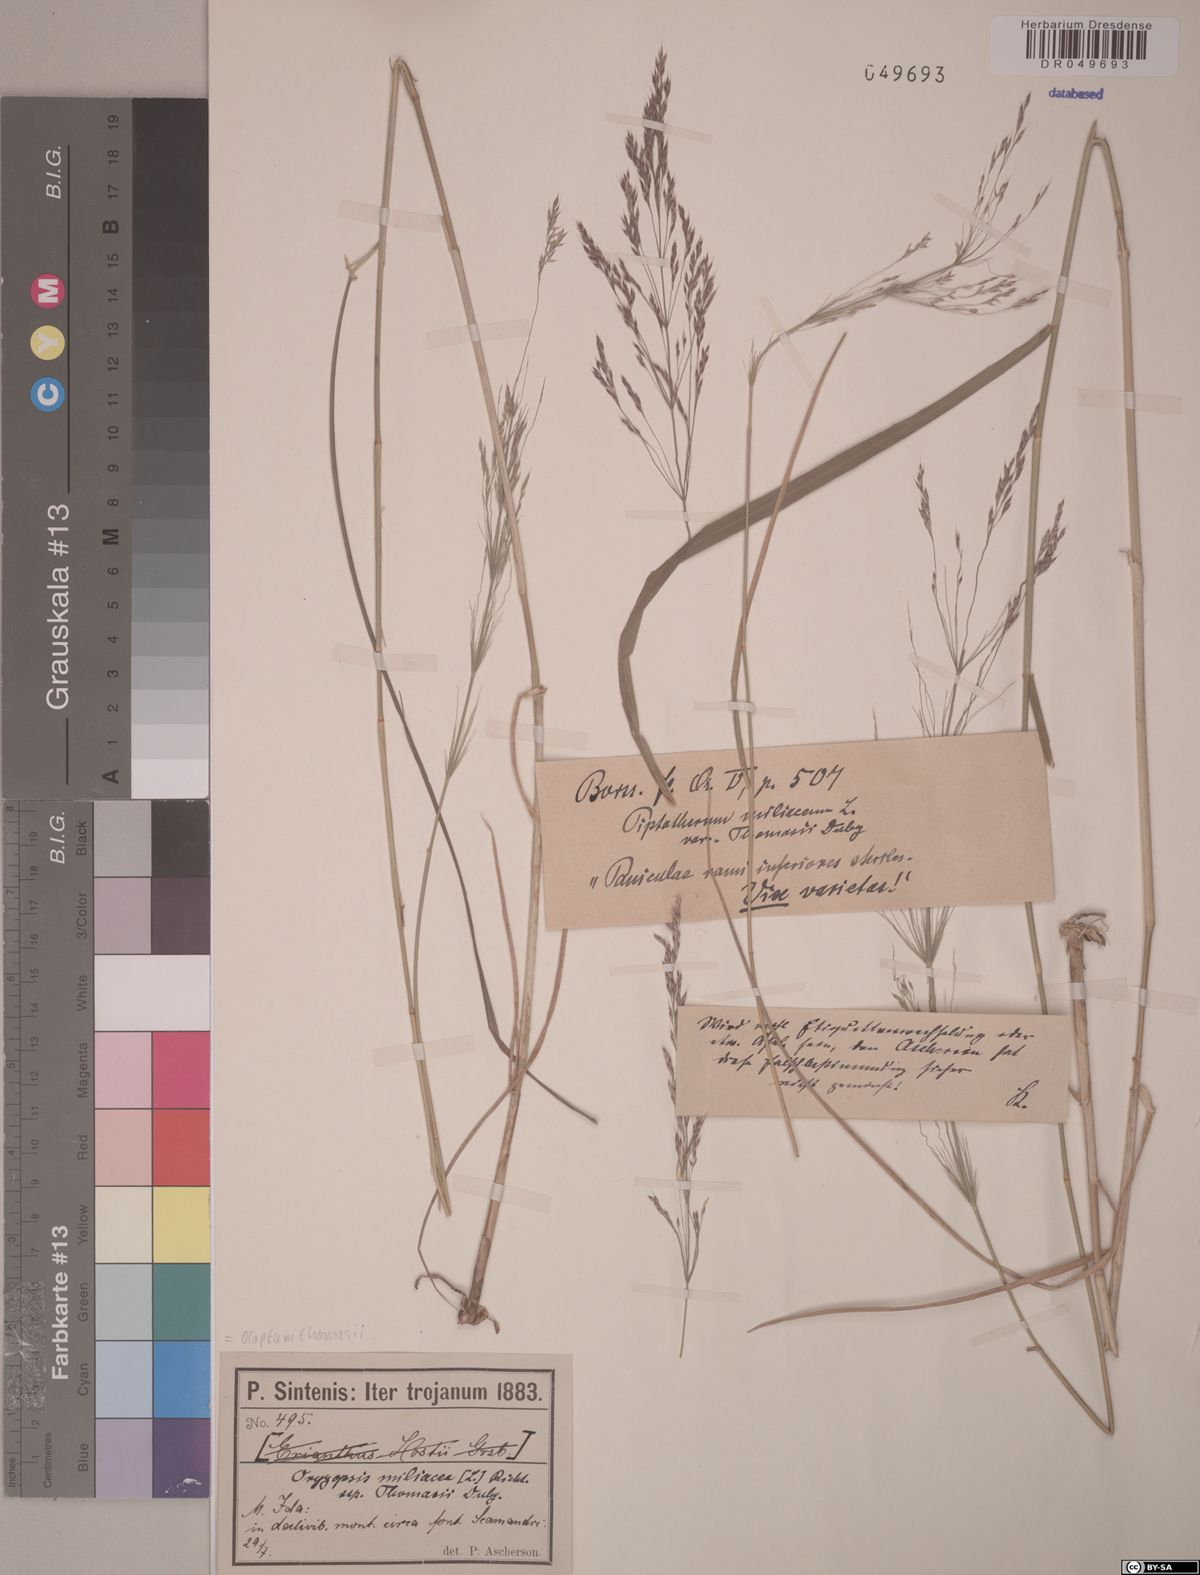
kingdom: Plantae
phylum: Tracheophyta
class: Liliopsida
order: Poales
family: Poaceae
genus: Oloptum
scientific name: Oloptum miliaceum
